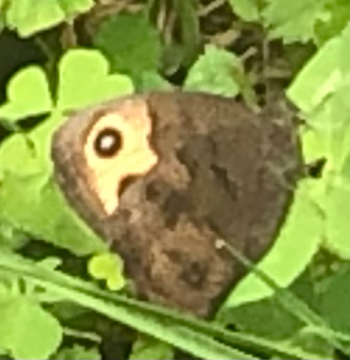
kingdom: Animalia
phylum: Arthropoda
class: Insecta
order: Lepidoptera
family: Nymphalidae
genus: Cercyonis
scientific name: Cercyonis pegala
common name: Common Wood-Nymph
